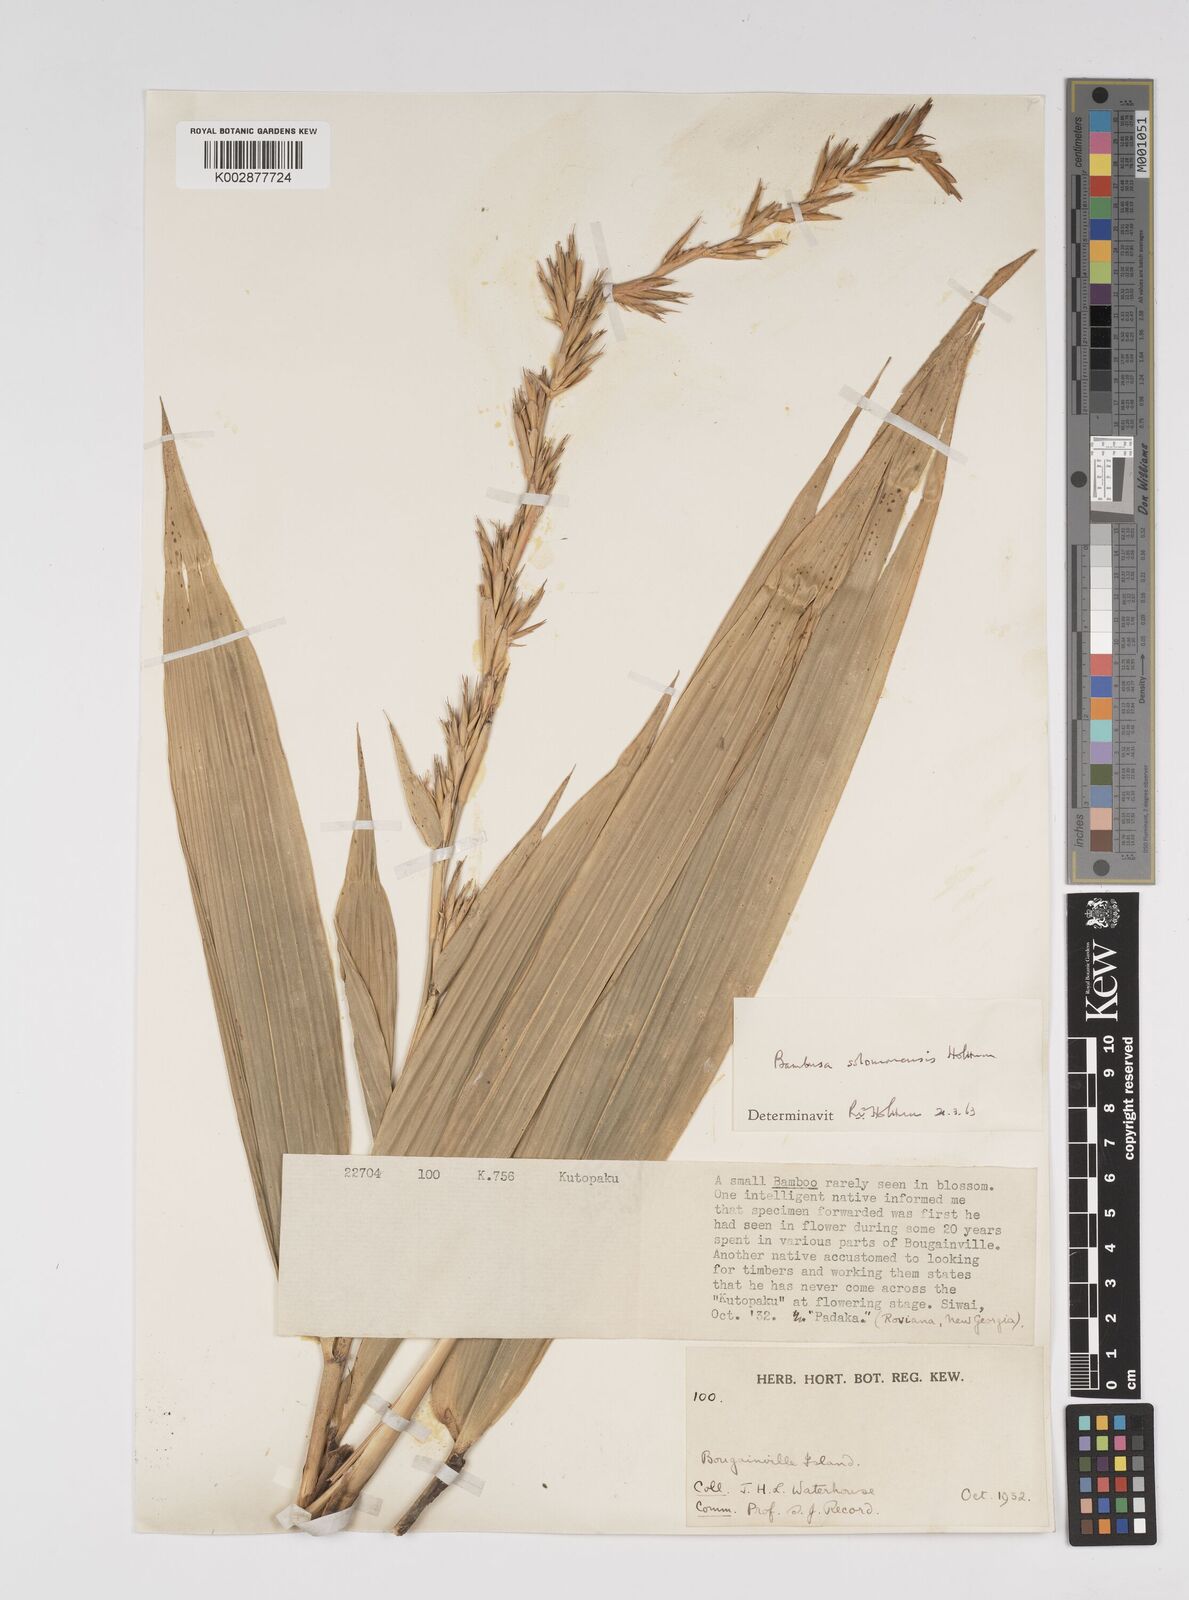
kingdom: Plantae
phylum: Tracheophyta
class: Liliopsida
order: Poales
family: Poaceae
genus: Bambusa
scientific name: Bambusa solomonensis
